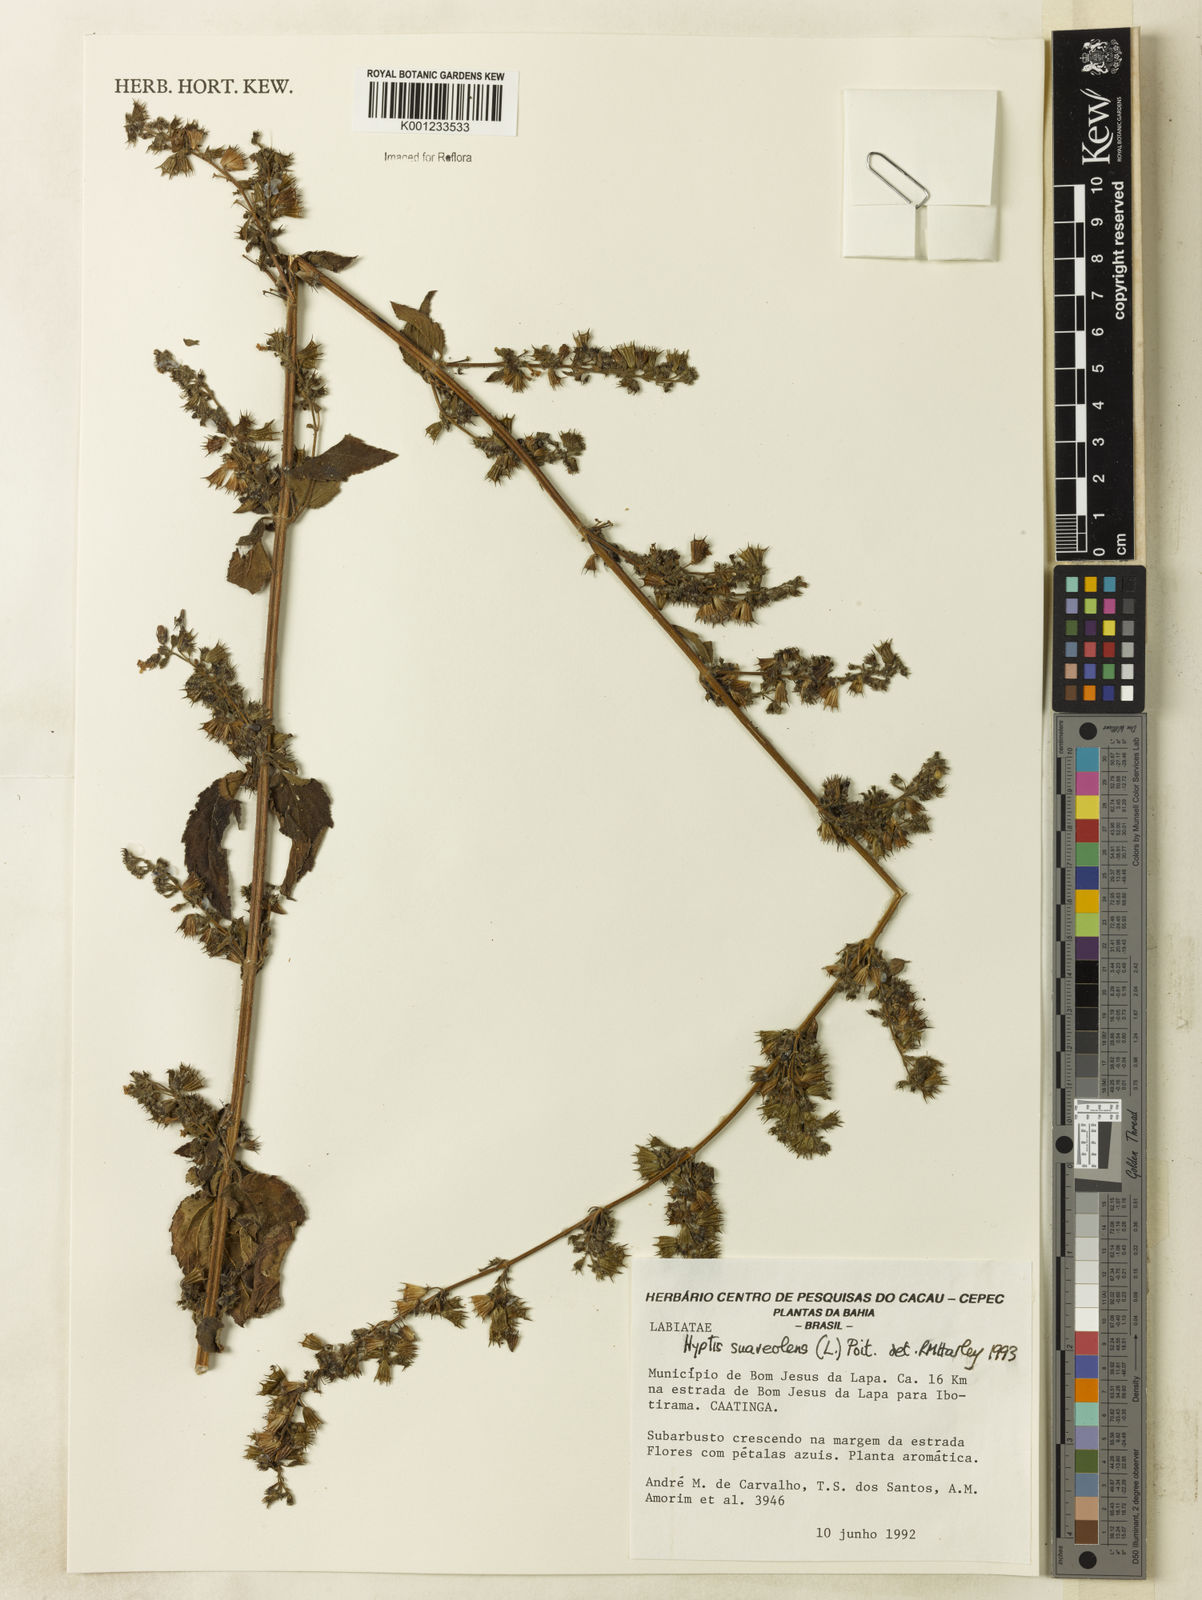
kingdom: Plantae
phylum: Tracheophyta
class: Magnoliopsida
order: Lamiales
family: Lamiaceae
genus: Mesosphaerum
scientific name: Mesosphaerum suaveolens
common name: Pignut
